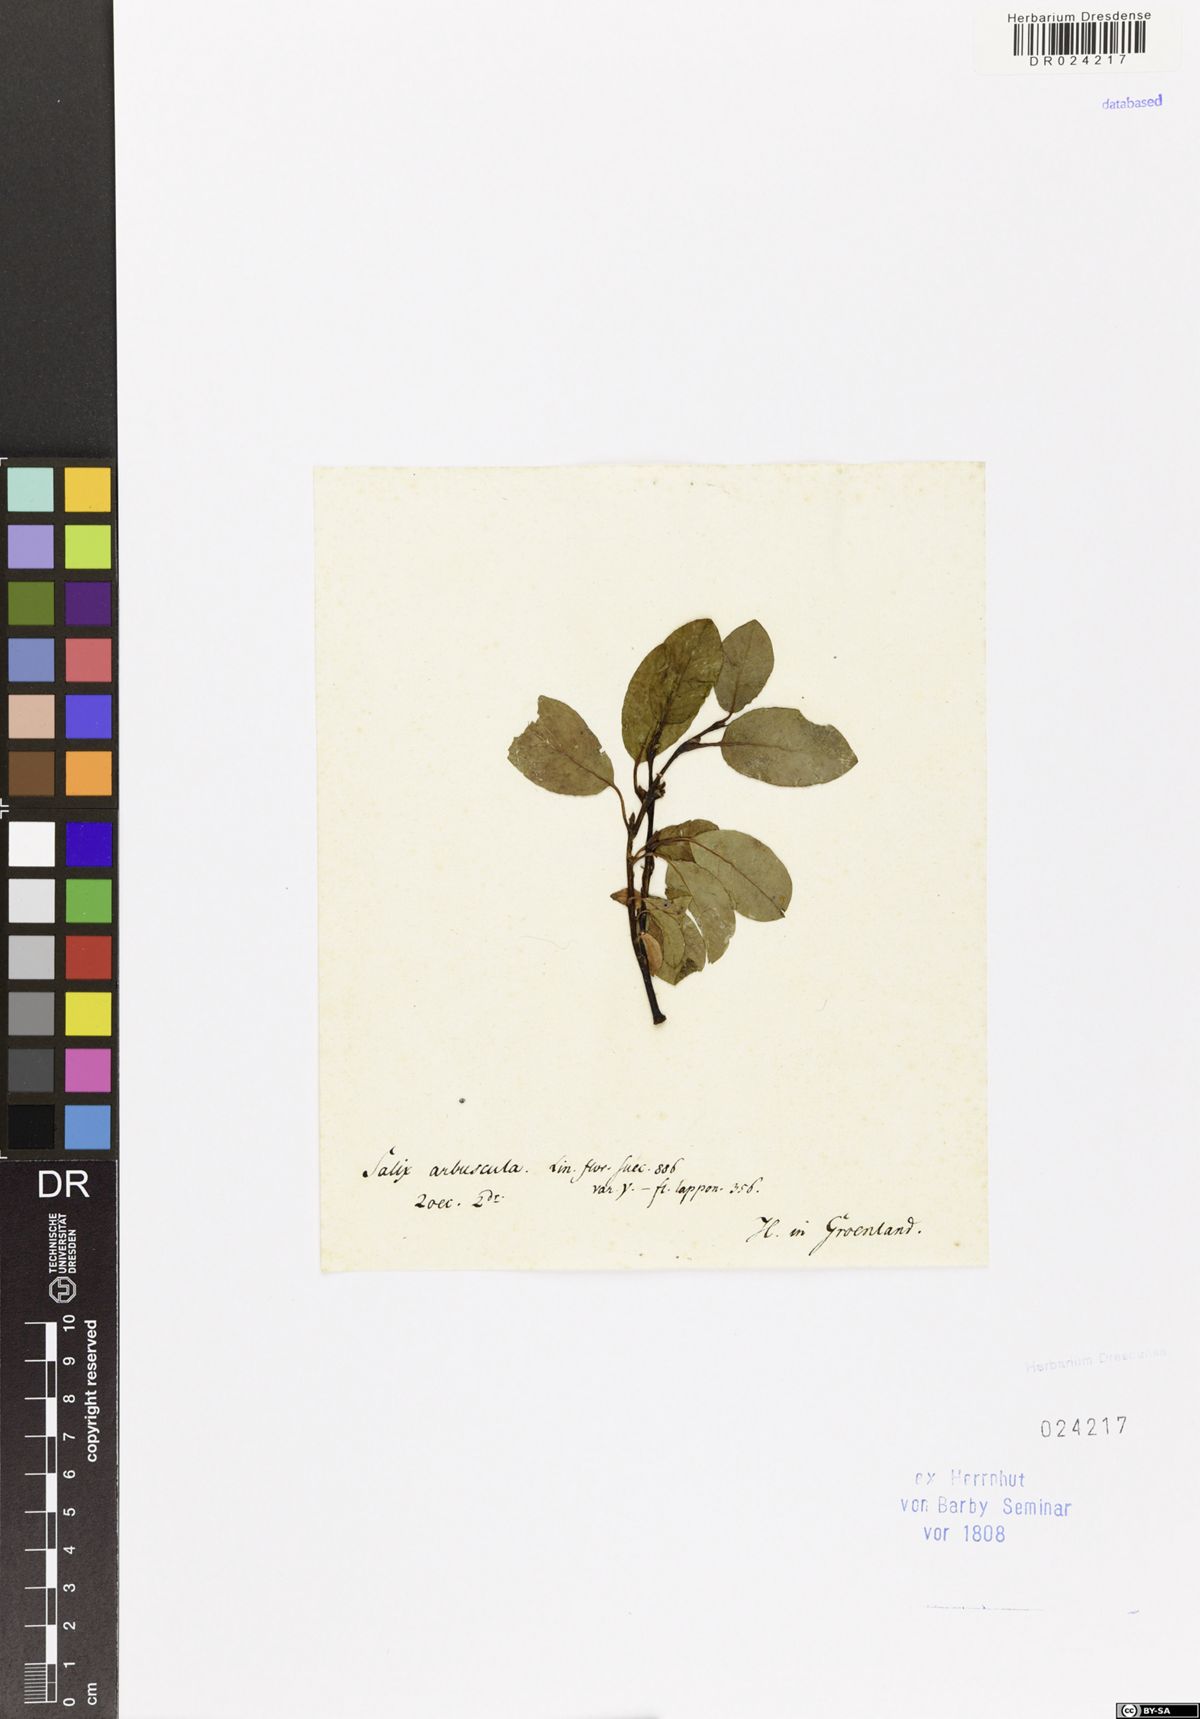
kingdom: Plantae
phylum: Tracheophyta
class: Magnoliopsida
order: Malpighiales
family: Salicaceae
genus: Salix
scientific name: Salix arbuscula
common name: Mountain willow
